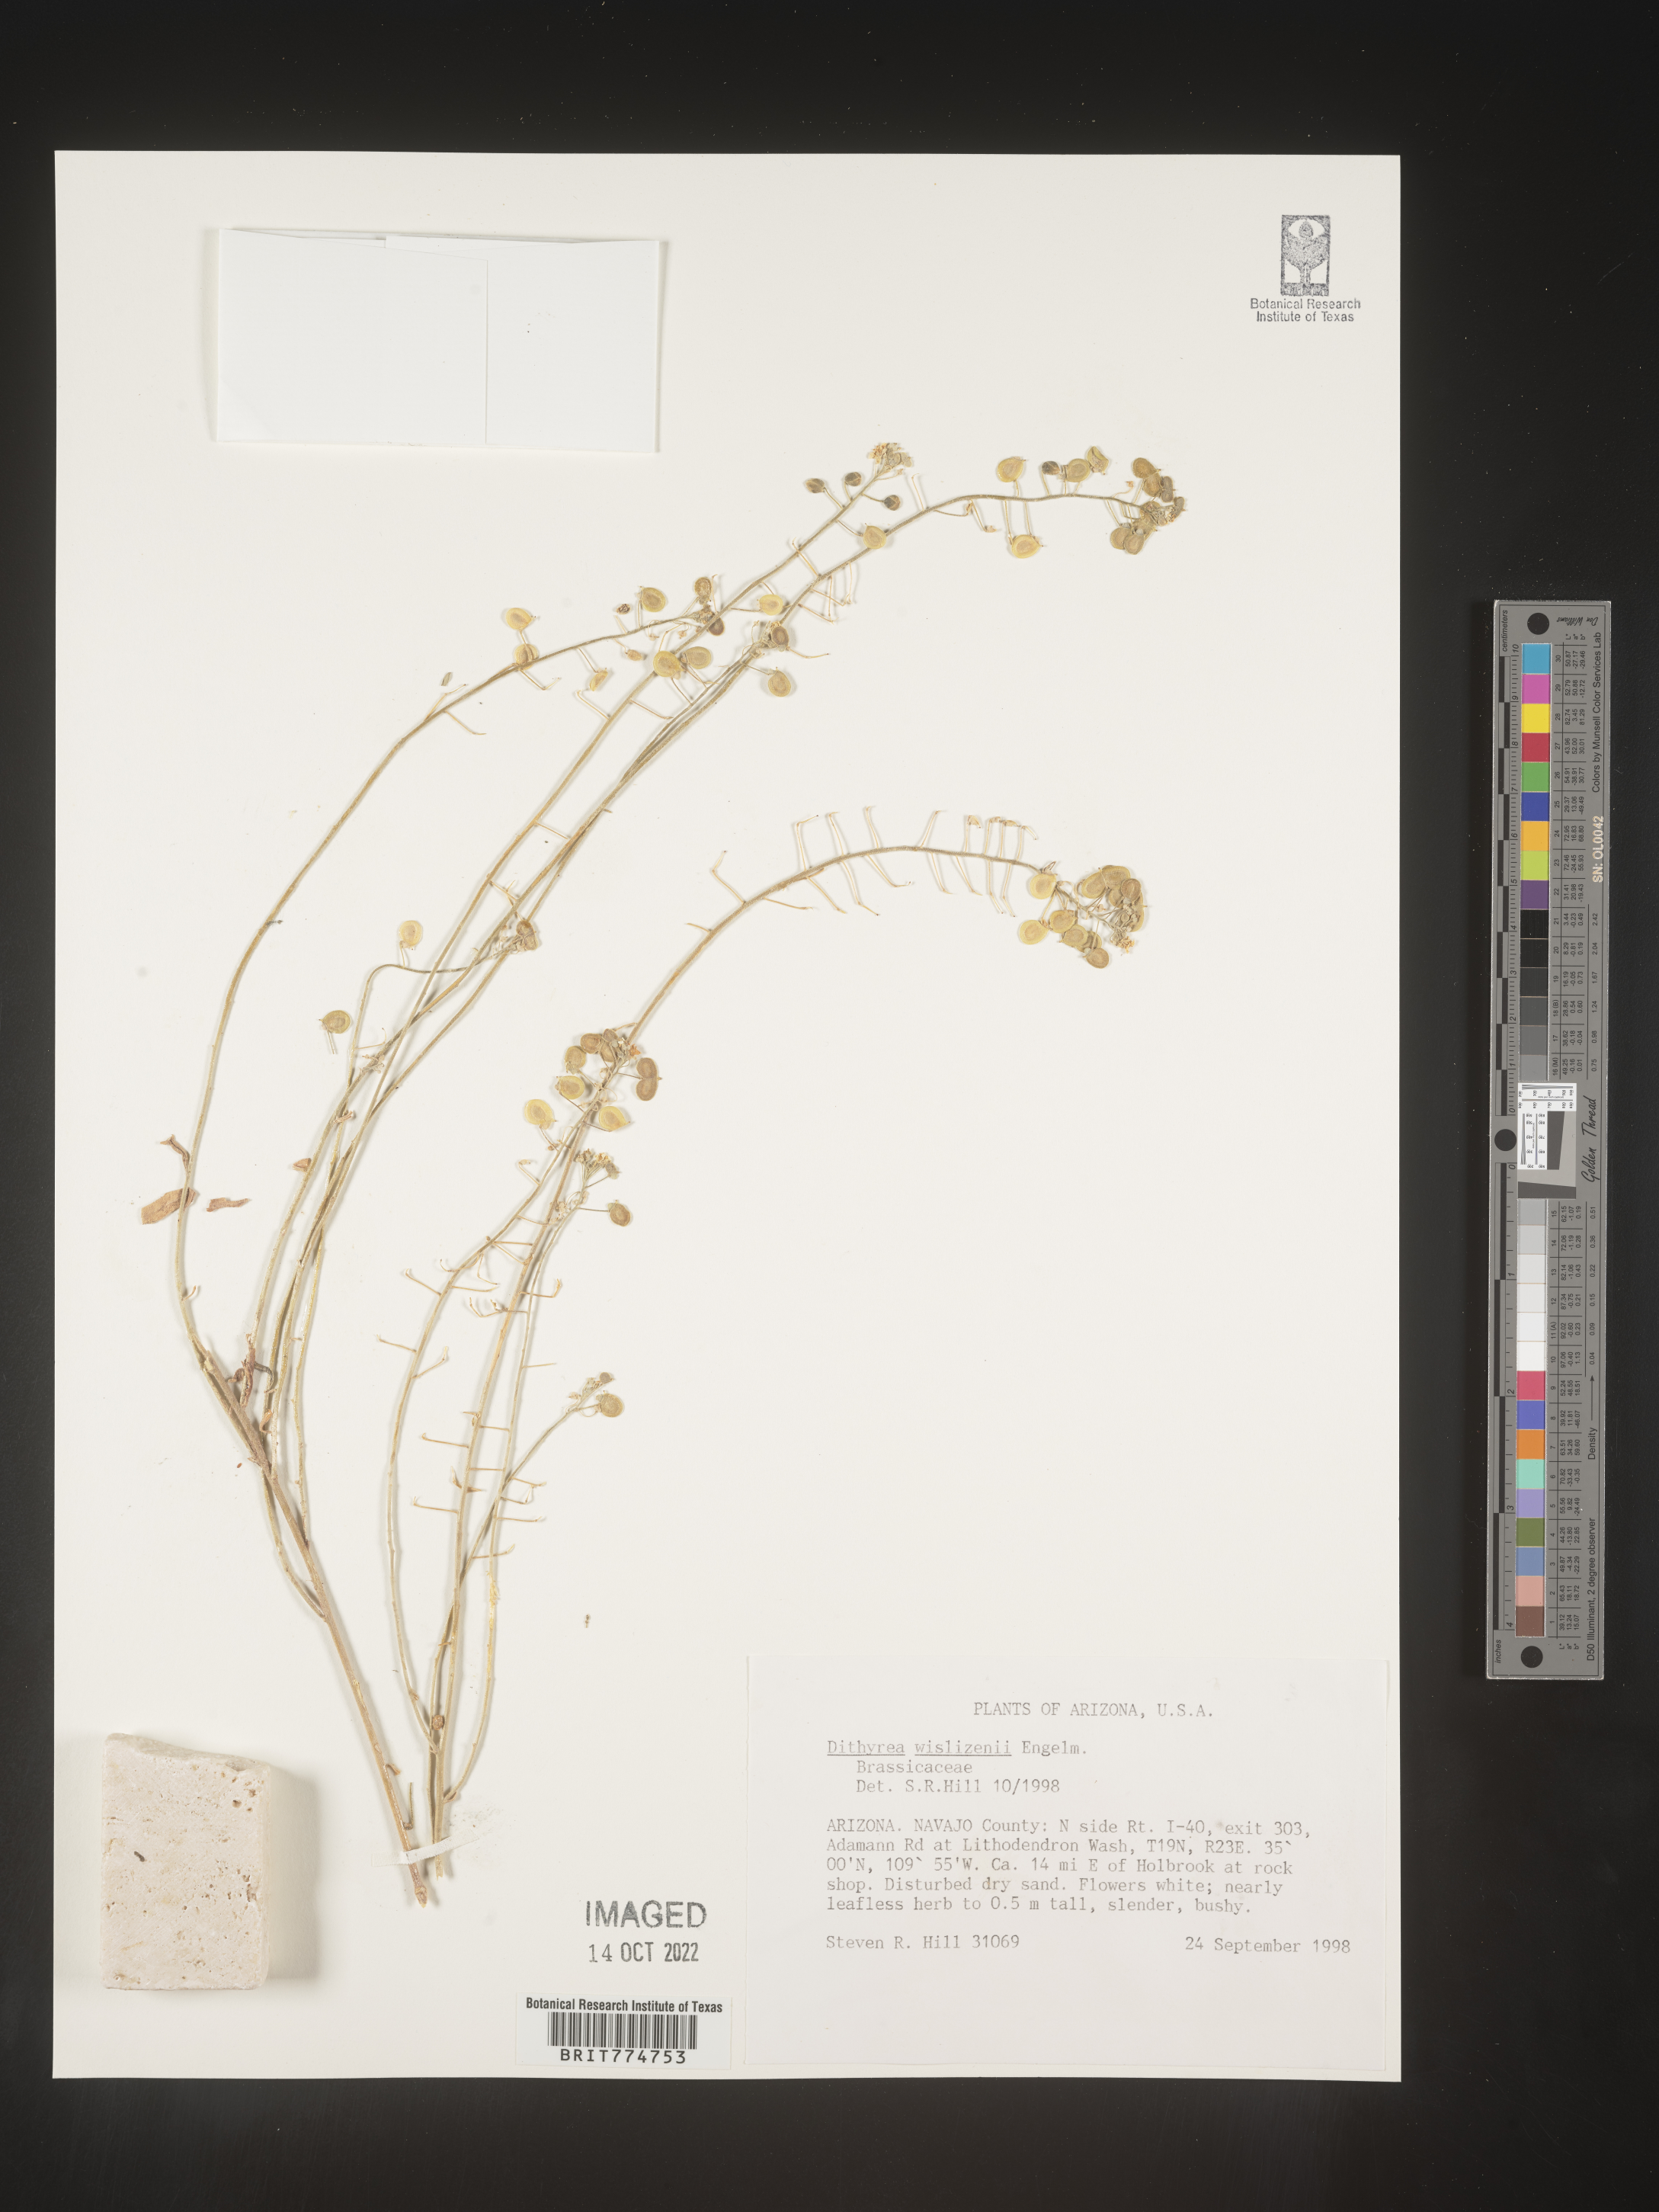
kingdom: Plantae
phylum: Tracheophyta
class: Magnoliopsida
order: Brassicales
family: Brassicaceae
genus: Dimorphocarpa
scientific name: Dimorphocarpa wislizenii
